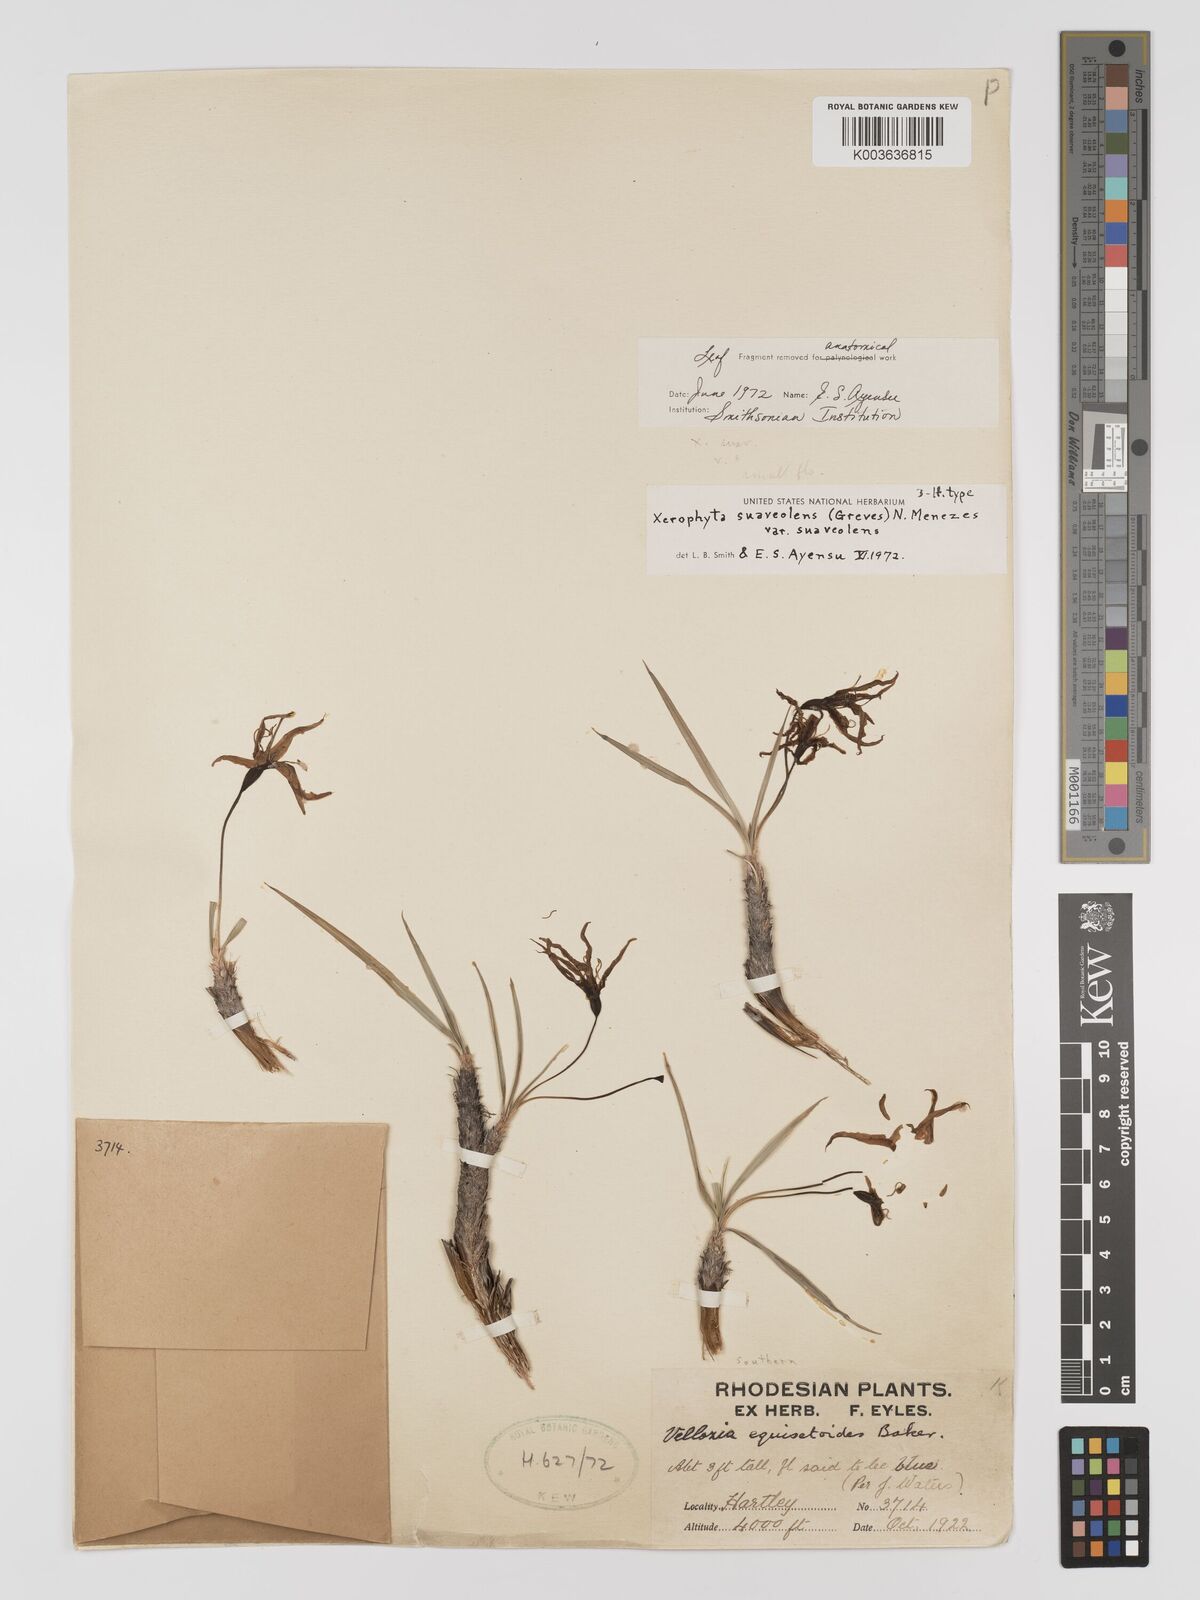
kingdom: Plantae
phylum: Tracheophyta
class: Liliopsida
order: Pandanales
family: Velloziaceae
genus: Xerophyta
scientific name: Xerophyta suaveolens
